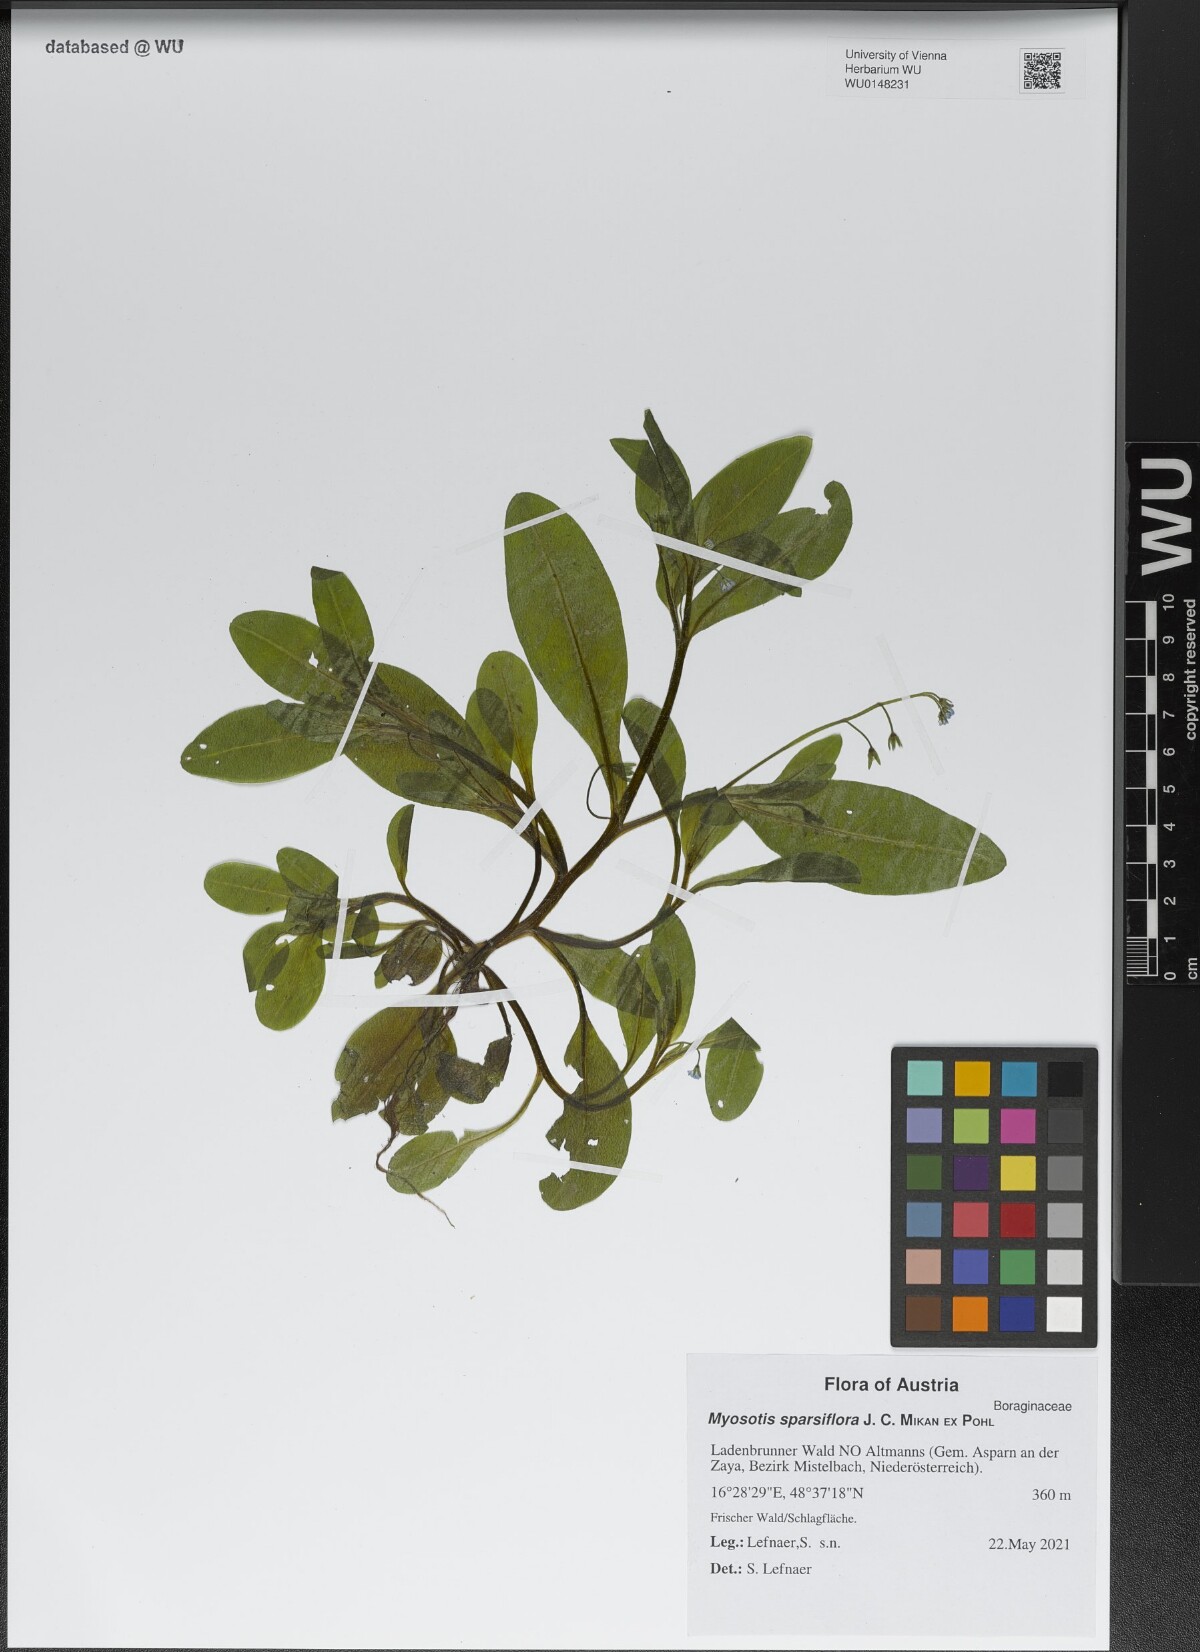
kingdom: Plantae
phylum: Tracheophyta
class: Magnoliopsida
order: Boraginales
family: Boraginaceae
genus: Myosotis
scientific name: Myosotis sparsiflora
